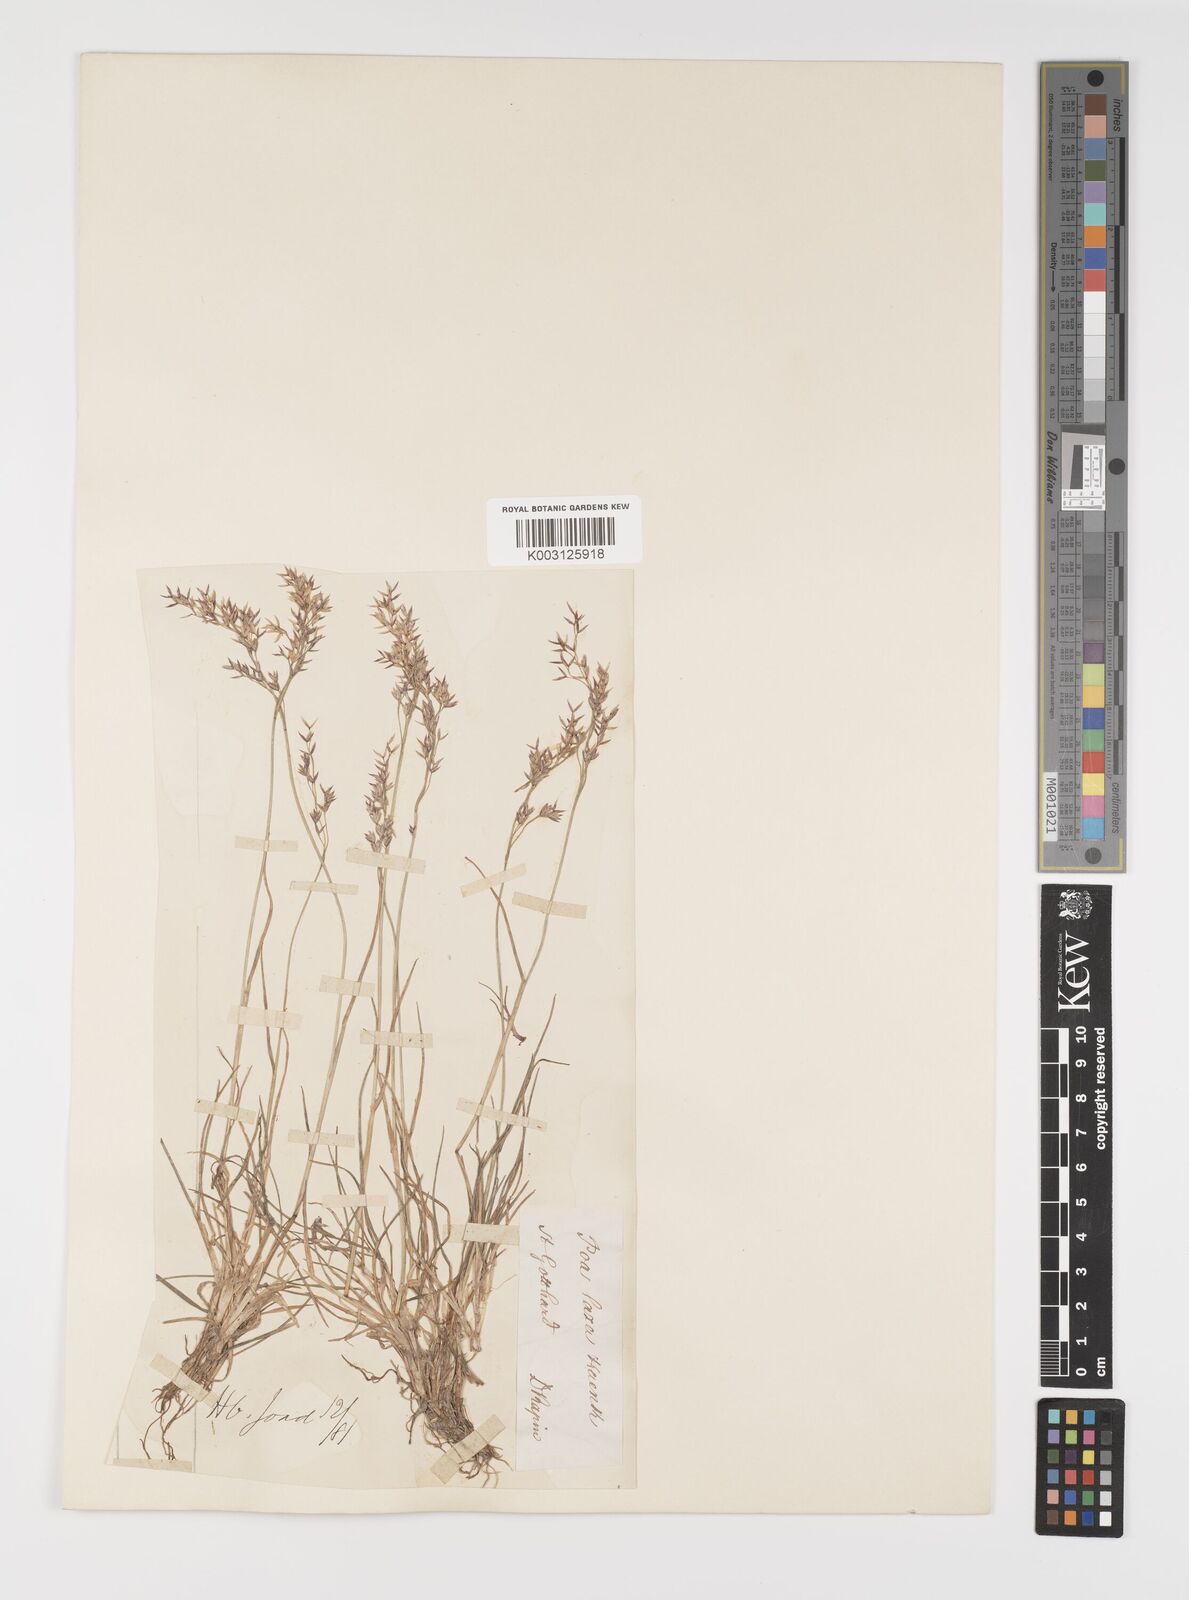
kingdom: Plantae
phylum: Tracheophyta
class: Liliopsida
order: Poales
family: Poaceae
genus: Poa
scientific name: Poa laxa
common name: Lax bluegrass
